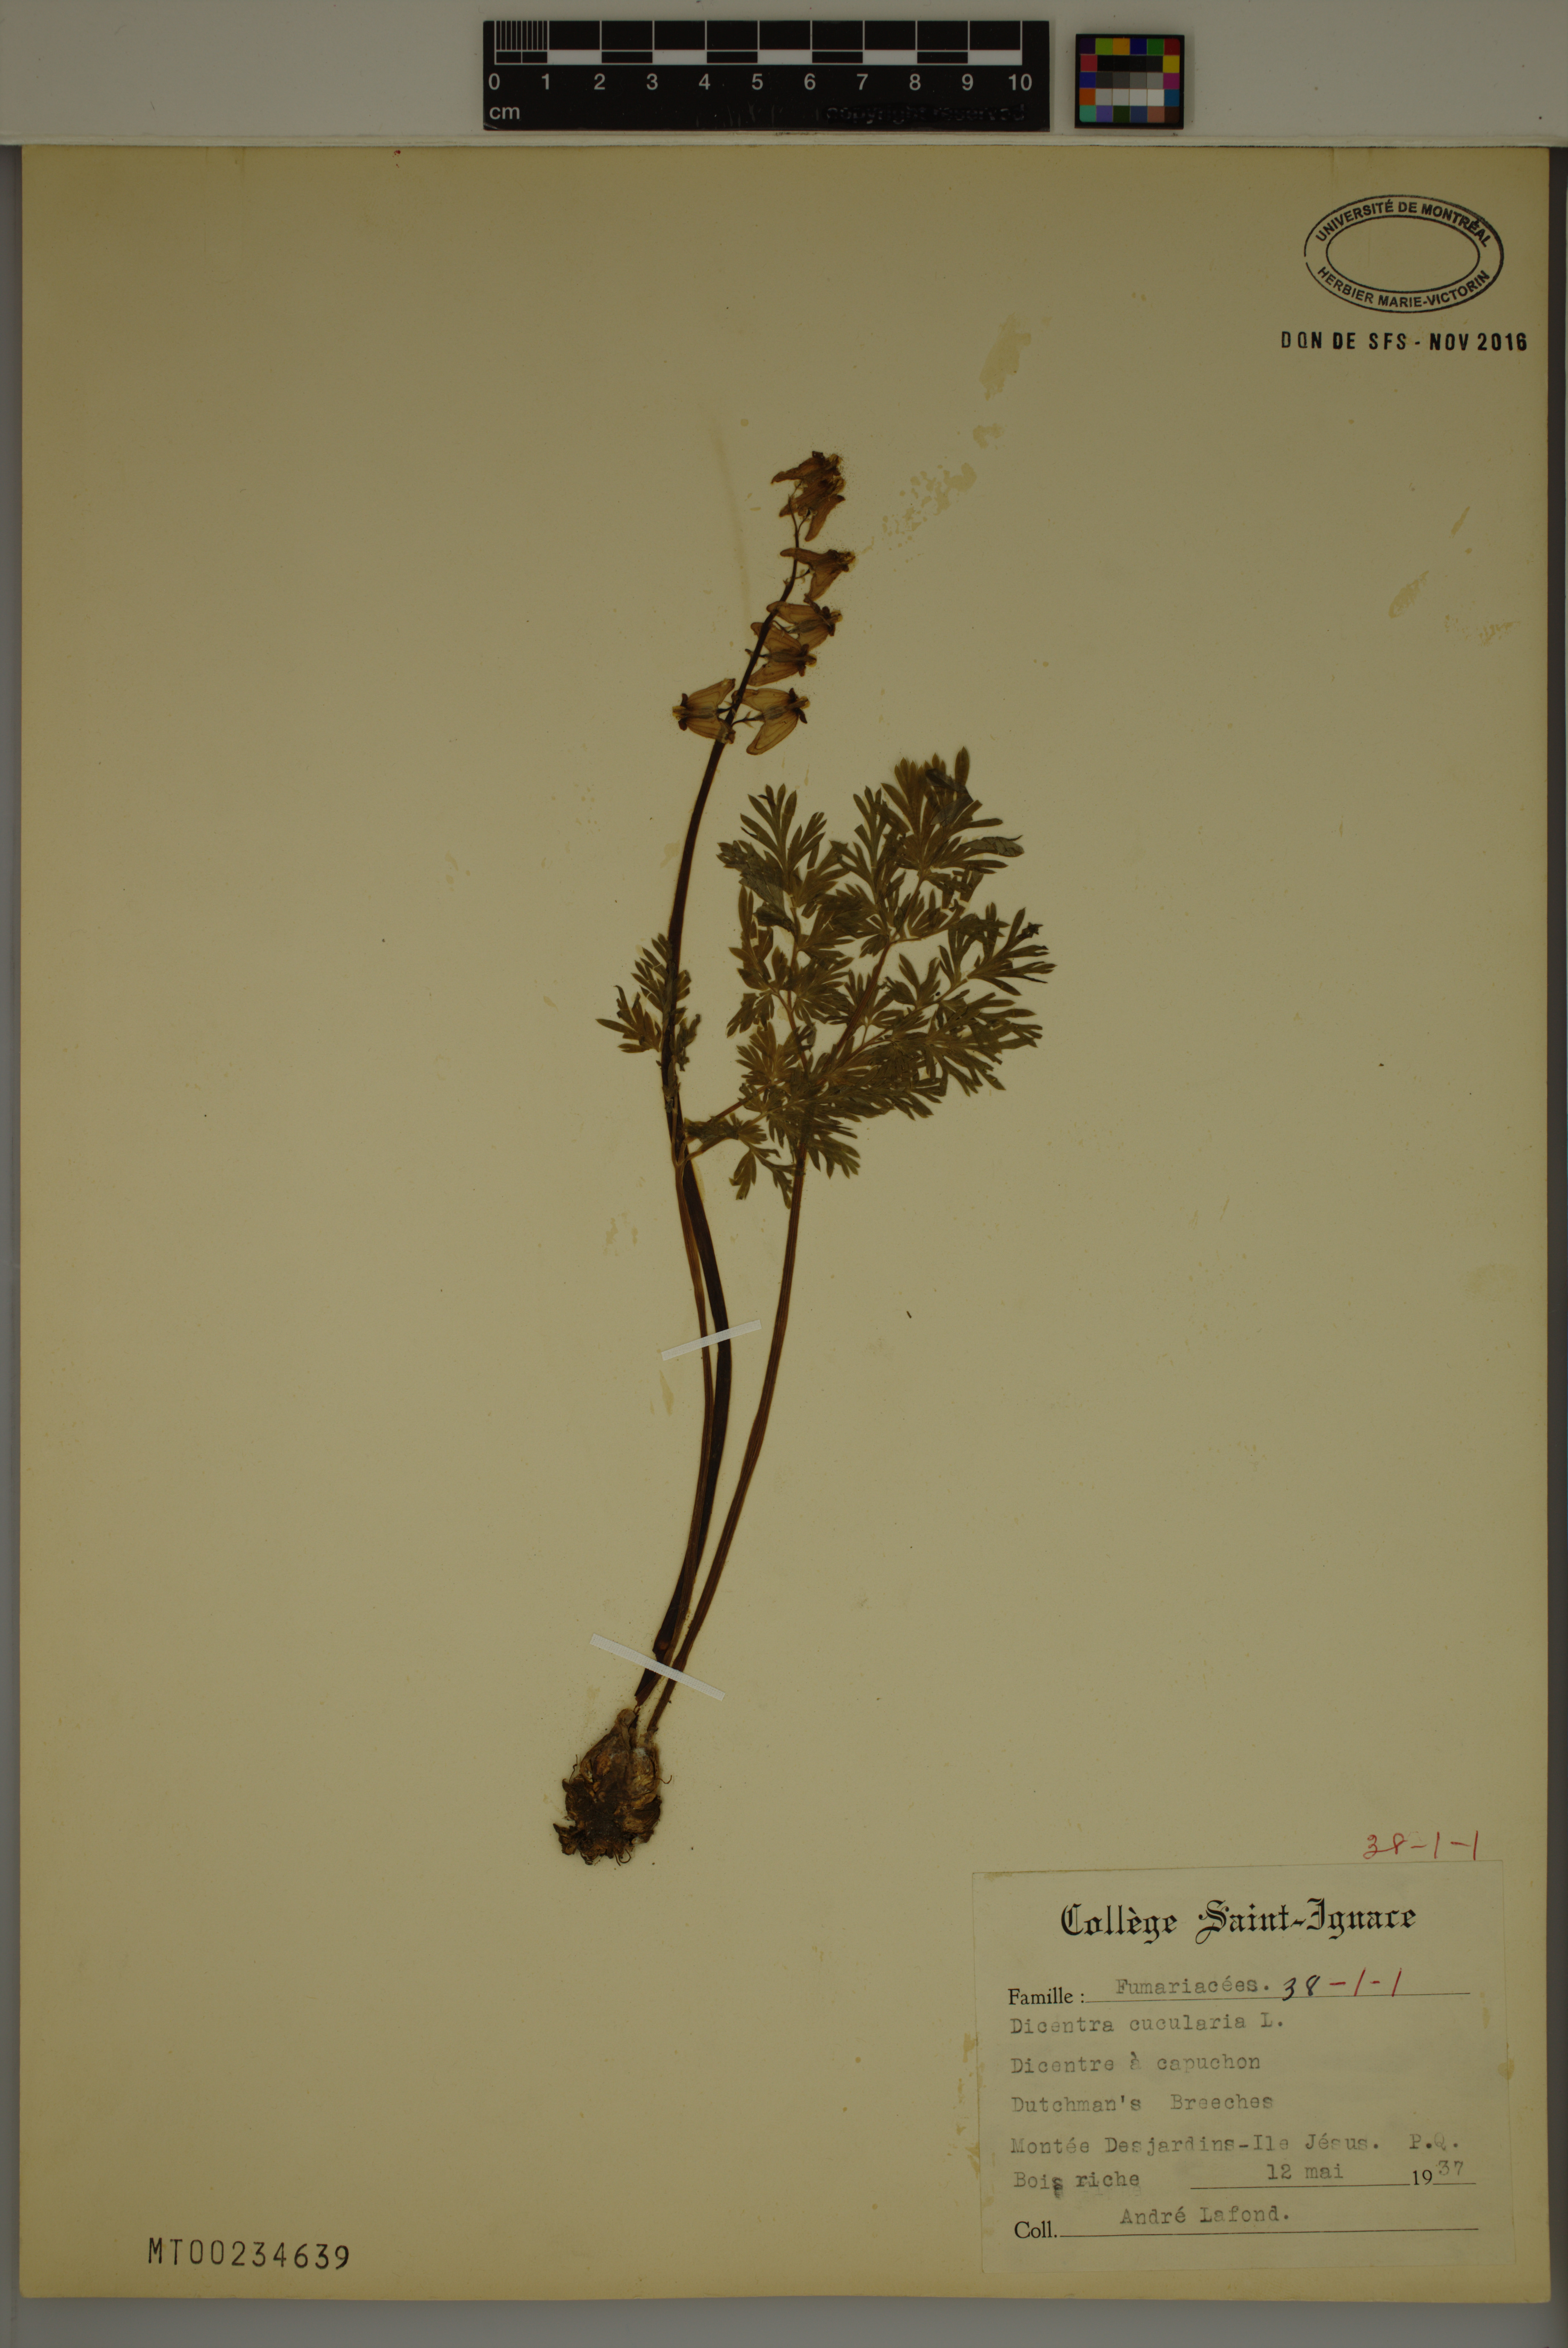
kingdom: Plantae
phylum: Tracheophyta
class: Magnoliopsida
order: Ranunculales
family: Papaveraceae
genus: Dicentra
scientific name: Dicentra cucullaria
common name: Dutchman's breeches
